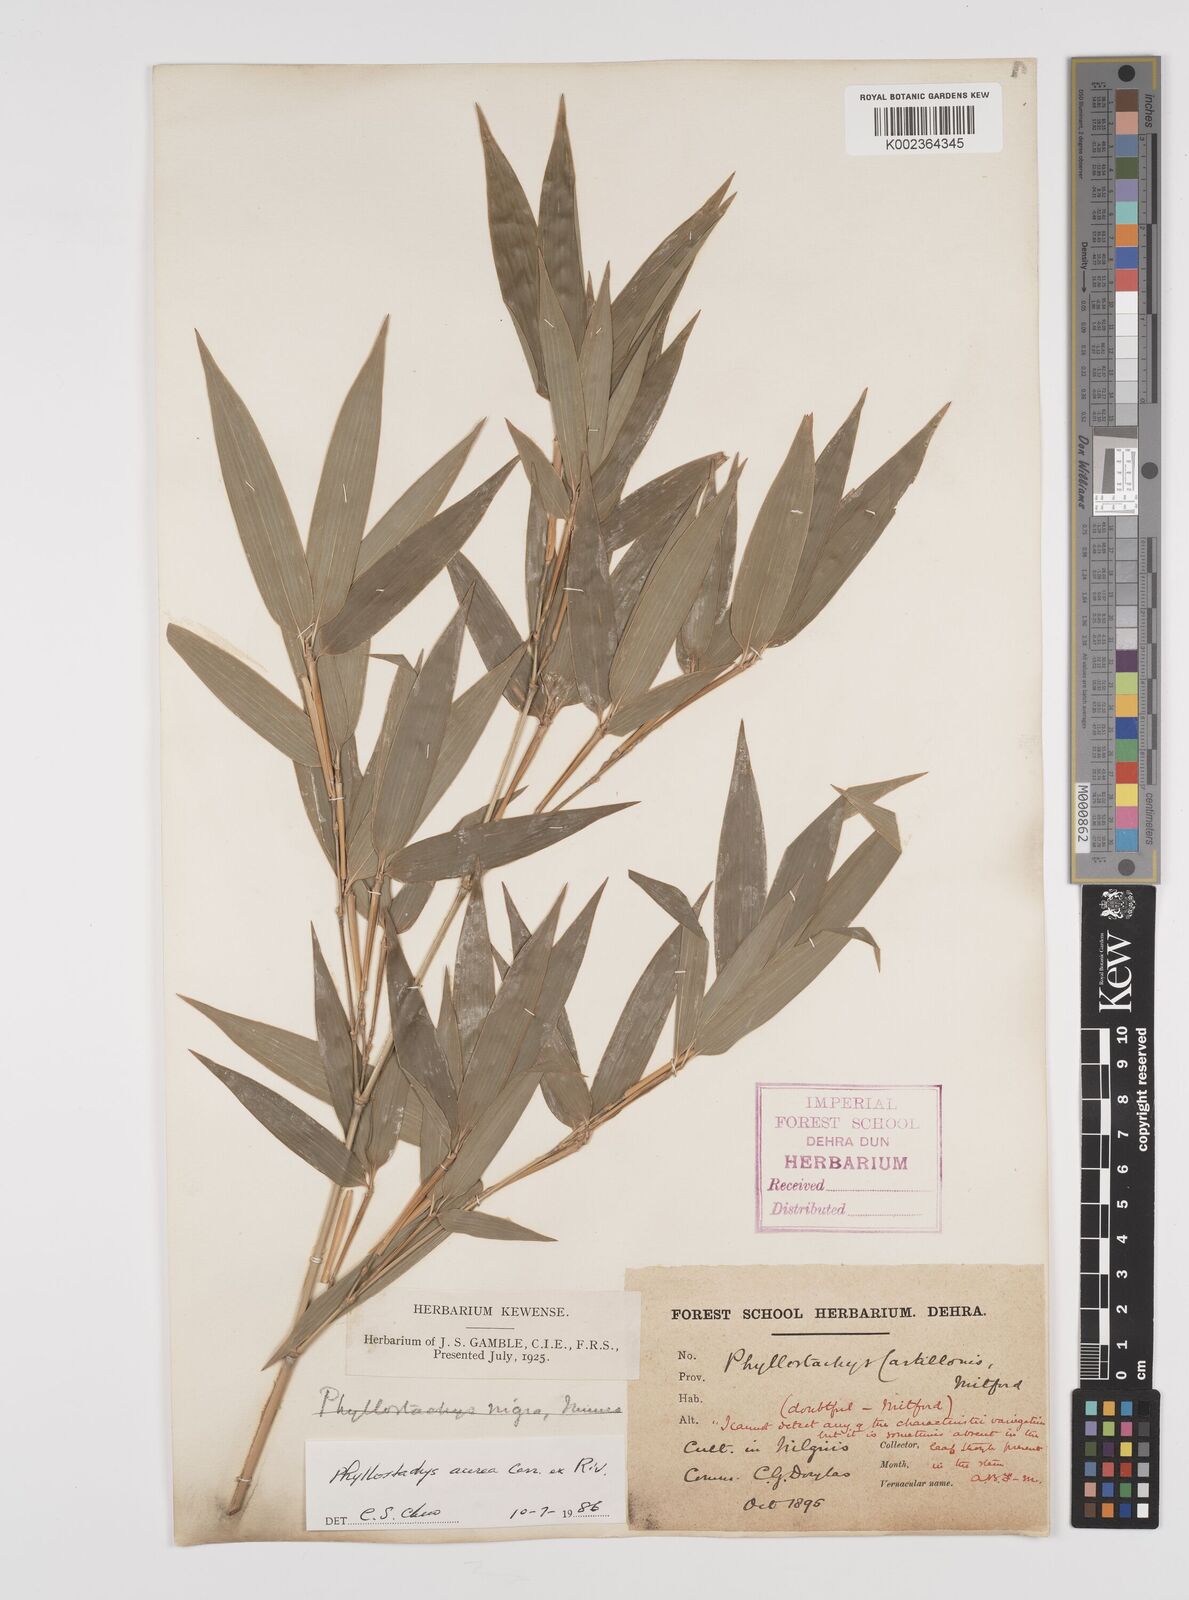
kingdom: Plantae
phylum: Tracheophyta
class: Liliopsida
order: Poales
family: Poaceae
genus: Phyllostachys
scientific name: Phyllostachys aurea
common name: Golden bamboo
